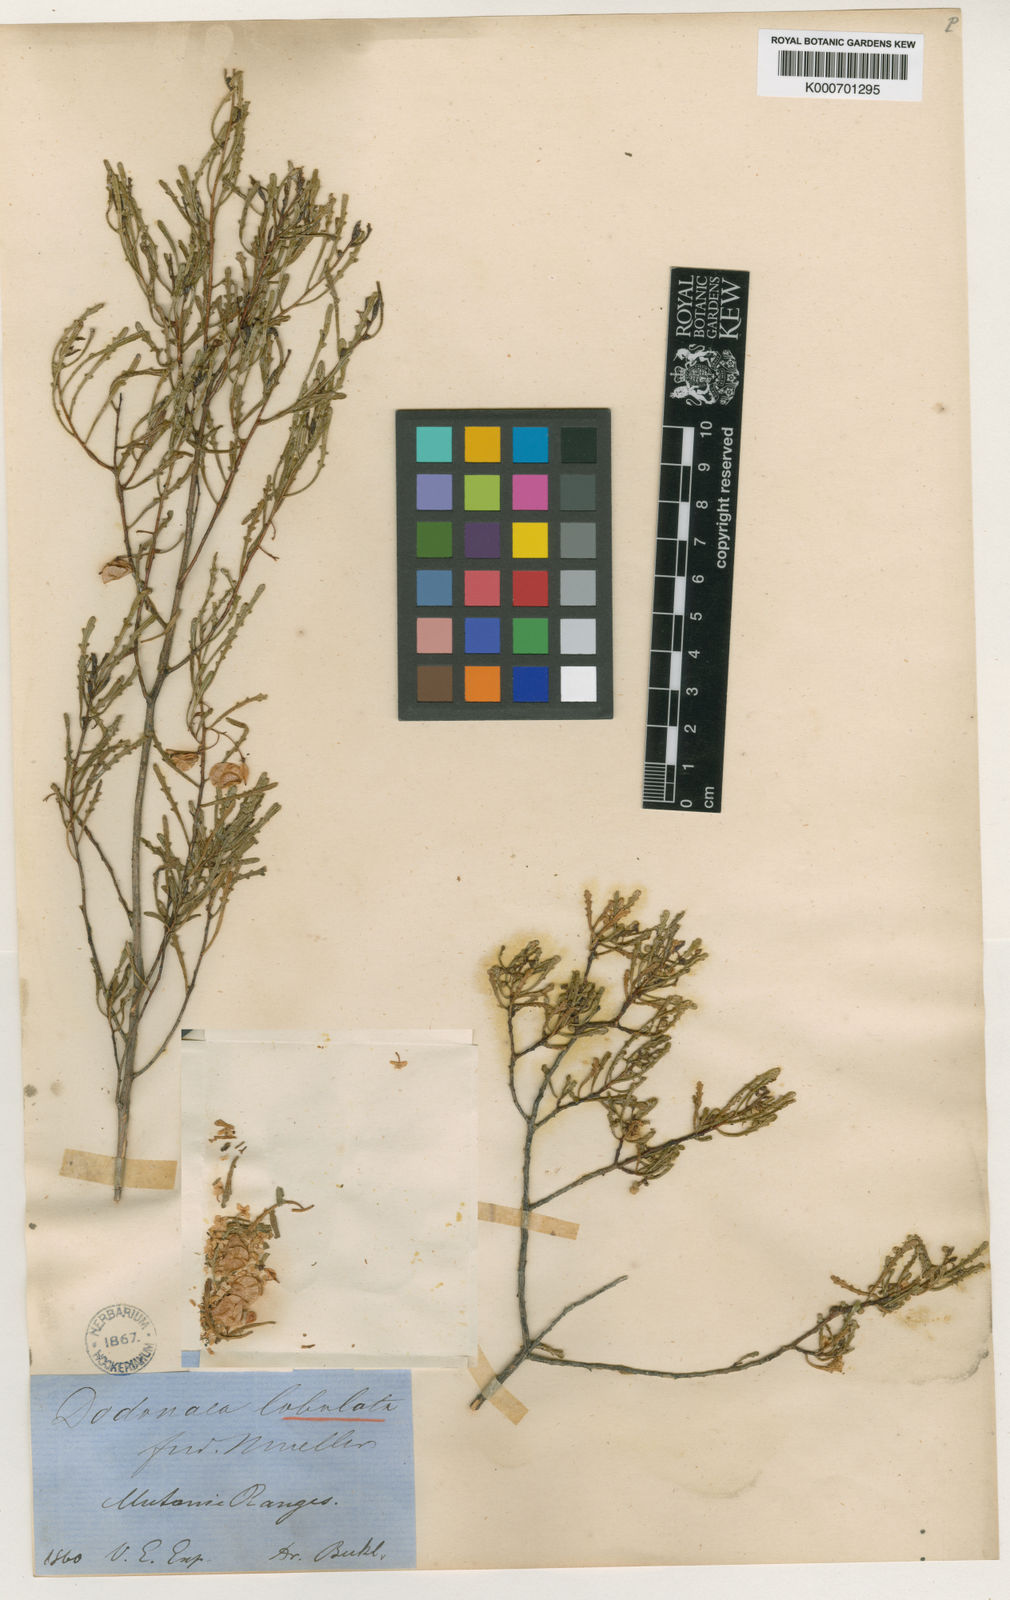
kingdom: Plantae
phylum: Tracheophyta
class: Magnoliopsida
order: Sapindales
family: Sapindaceae
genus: Dodonaea
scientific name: Dodonaea lobulata
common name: Lobe-leaf hopbush
